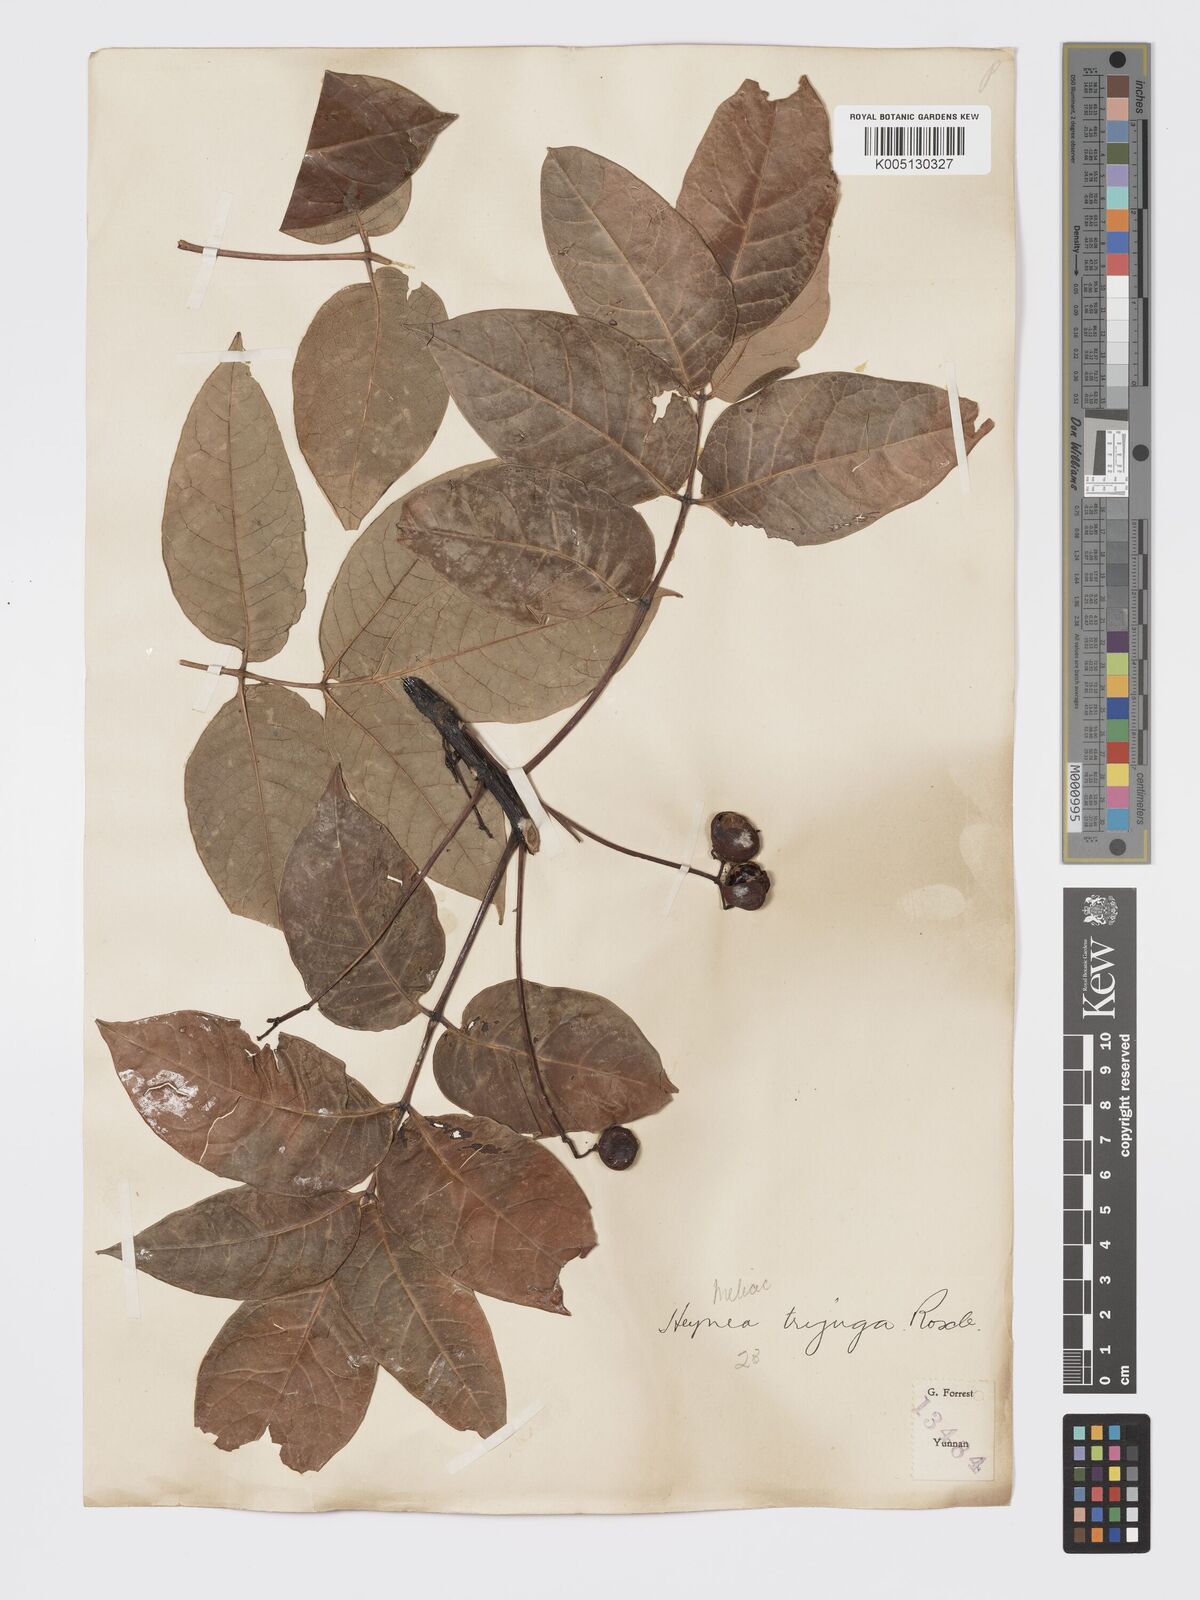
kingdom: Plantae
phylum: Tracheophyta
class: Magnoliopsida
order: Sapindales
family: Meliaceae
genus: Heynea
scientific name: Heynea trijuga
